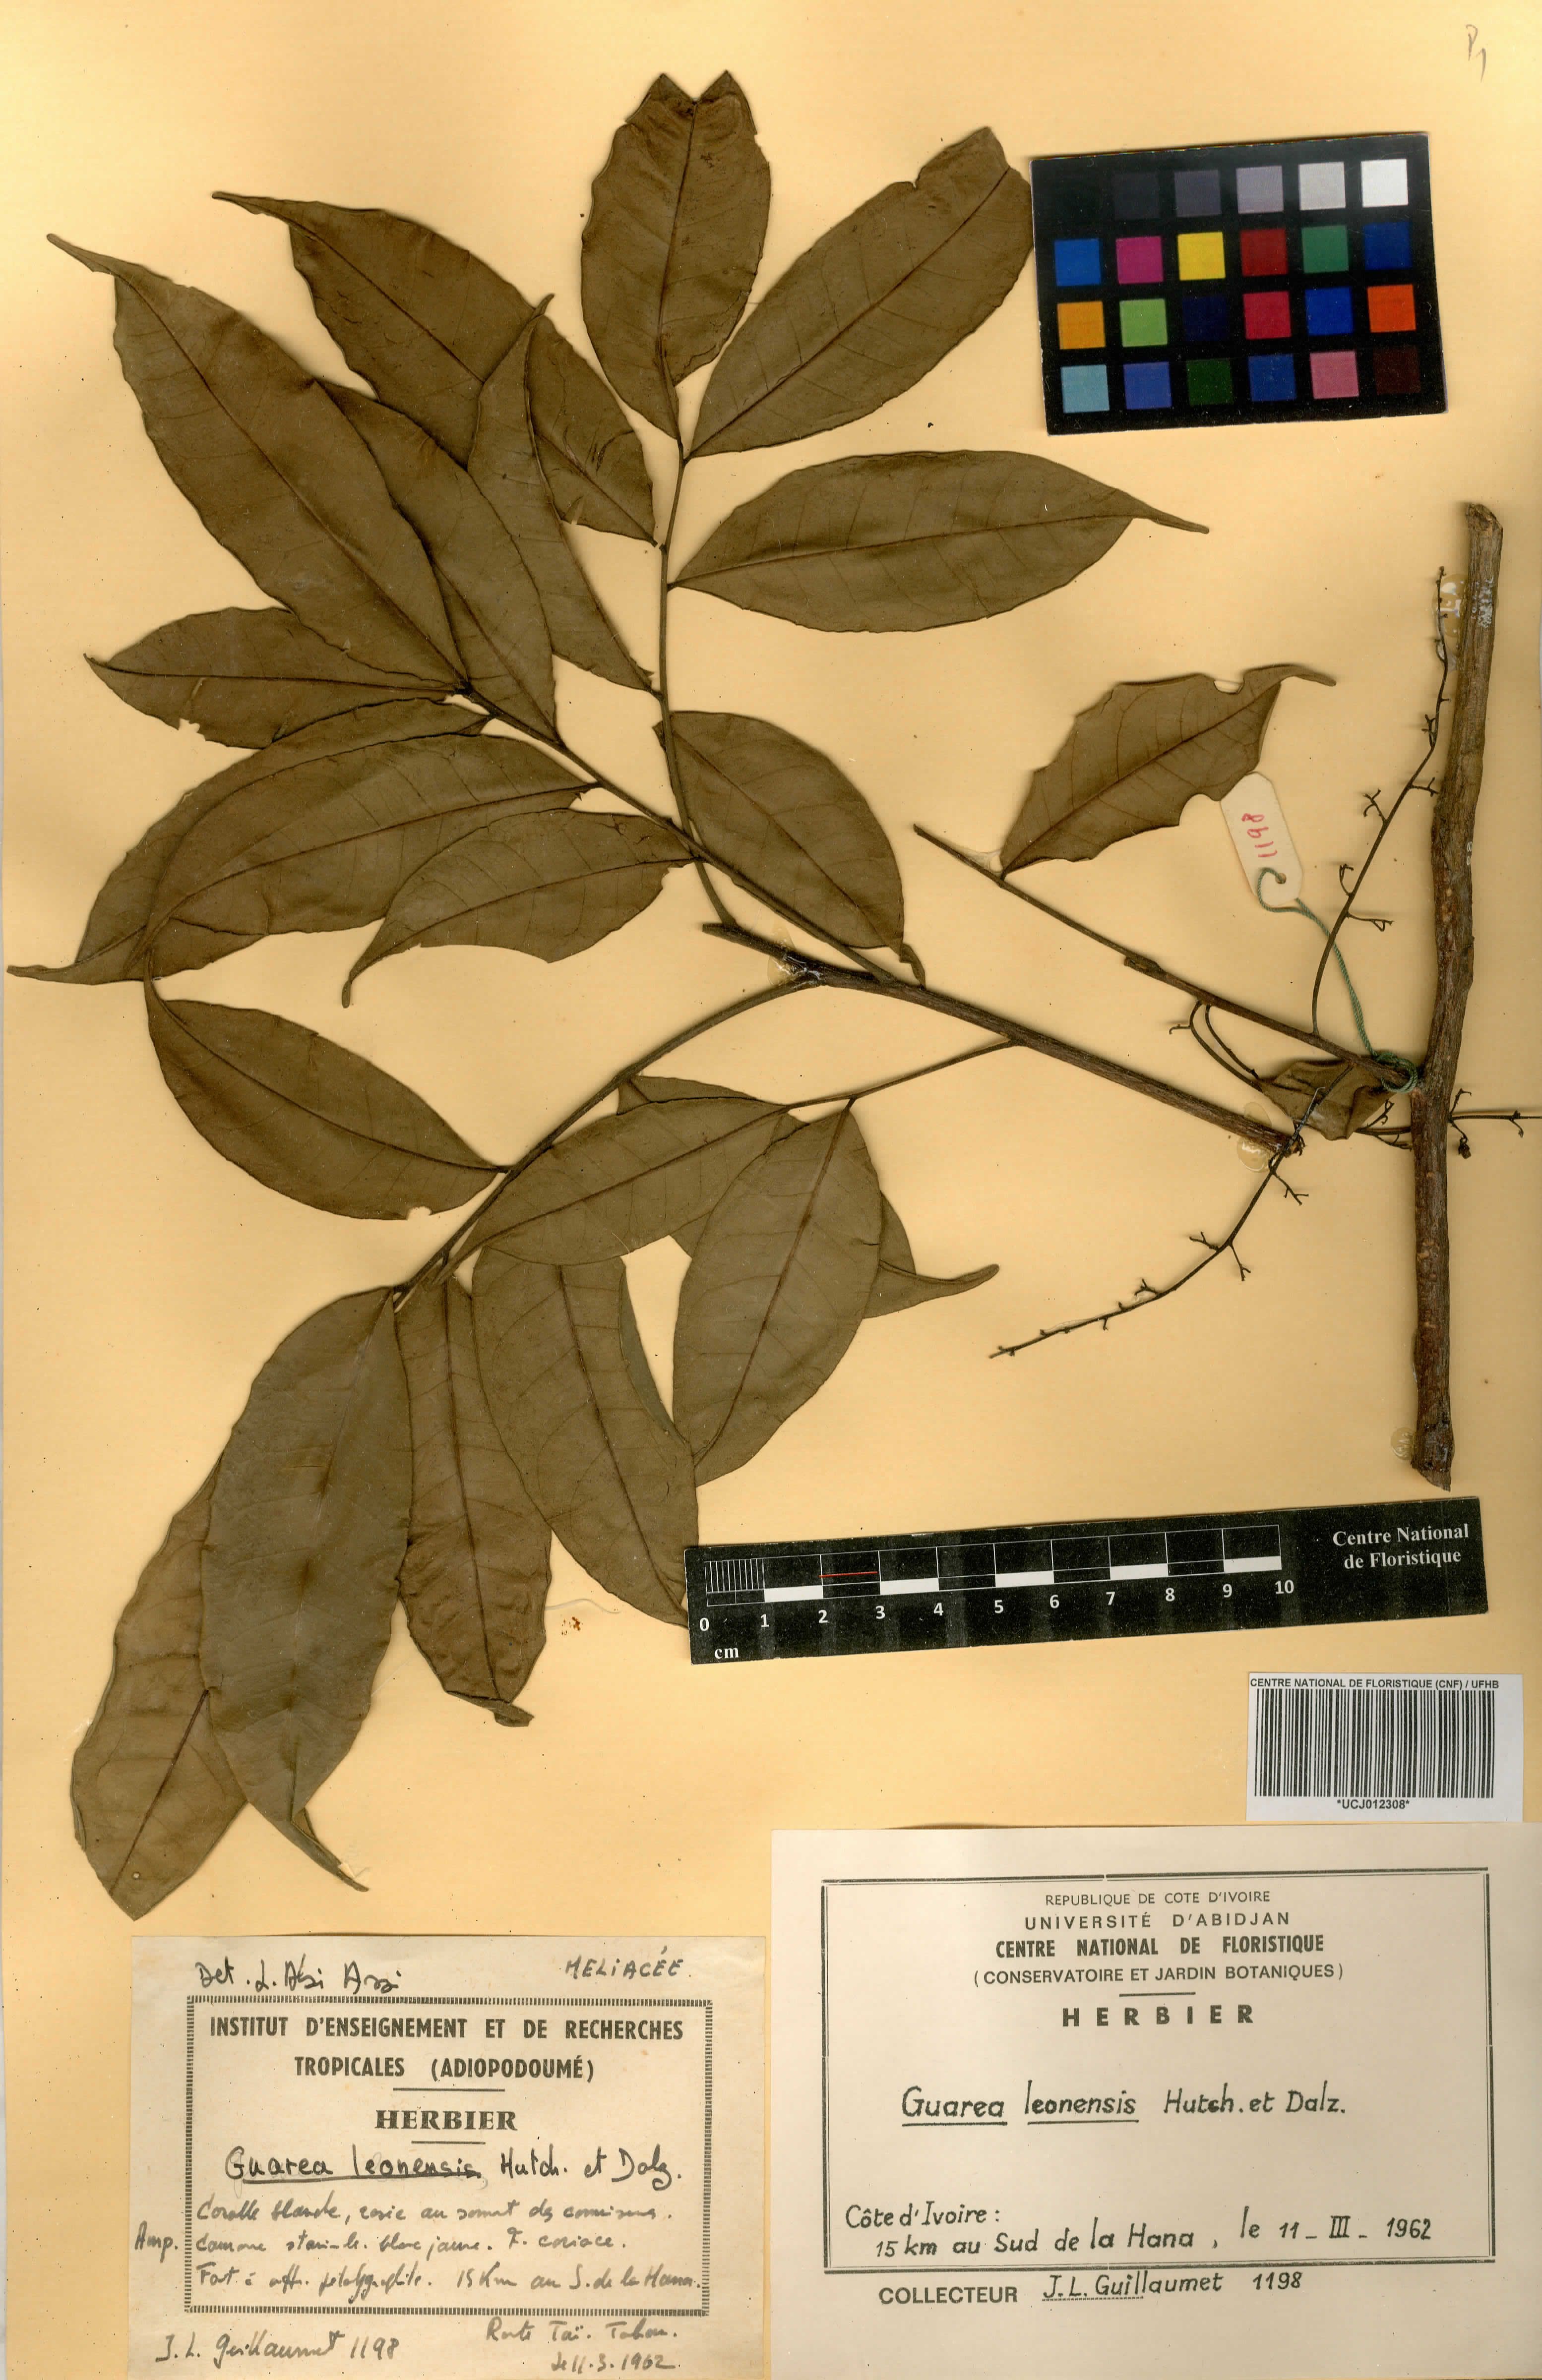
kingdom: Plantae
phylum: Tracheophyta
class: Magnoliopsida
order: Sapindales
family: Meliaceae
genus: Heckeldora
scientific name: Heckeldora leonensis
